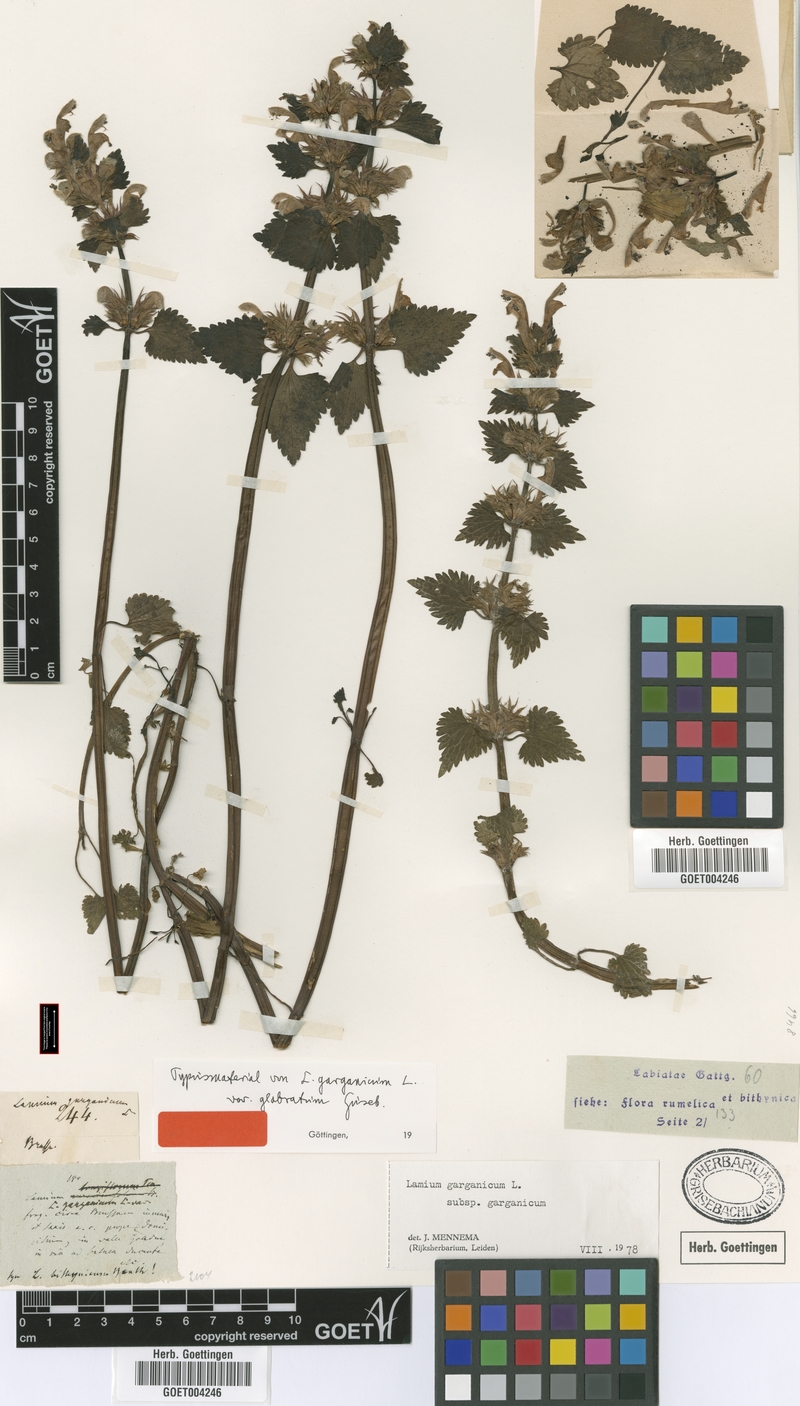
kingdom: Plantae
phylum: Tracheophyta
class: Magnoliopsida
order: Lamiales
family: Lamiaceae
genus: Lamium
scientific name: Lamium garganicum
